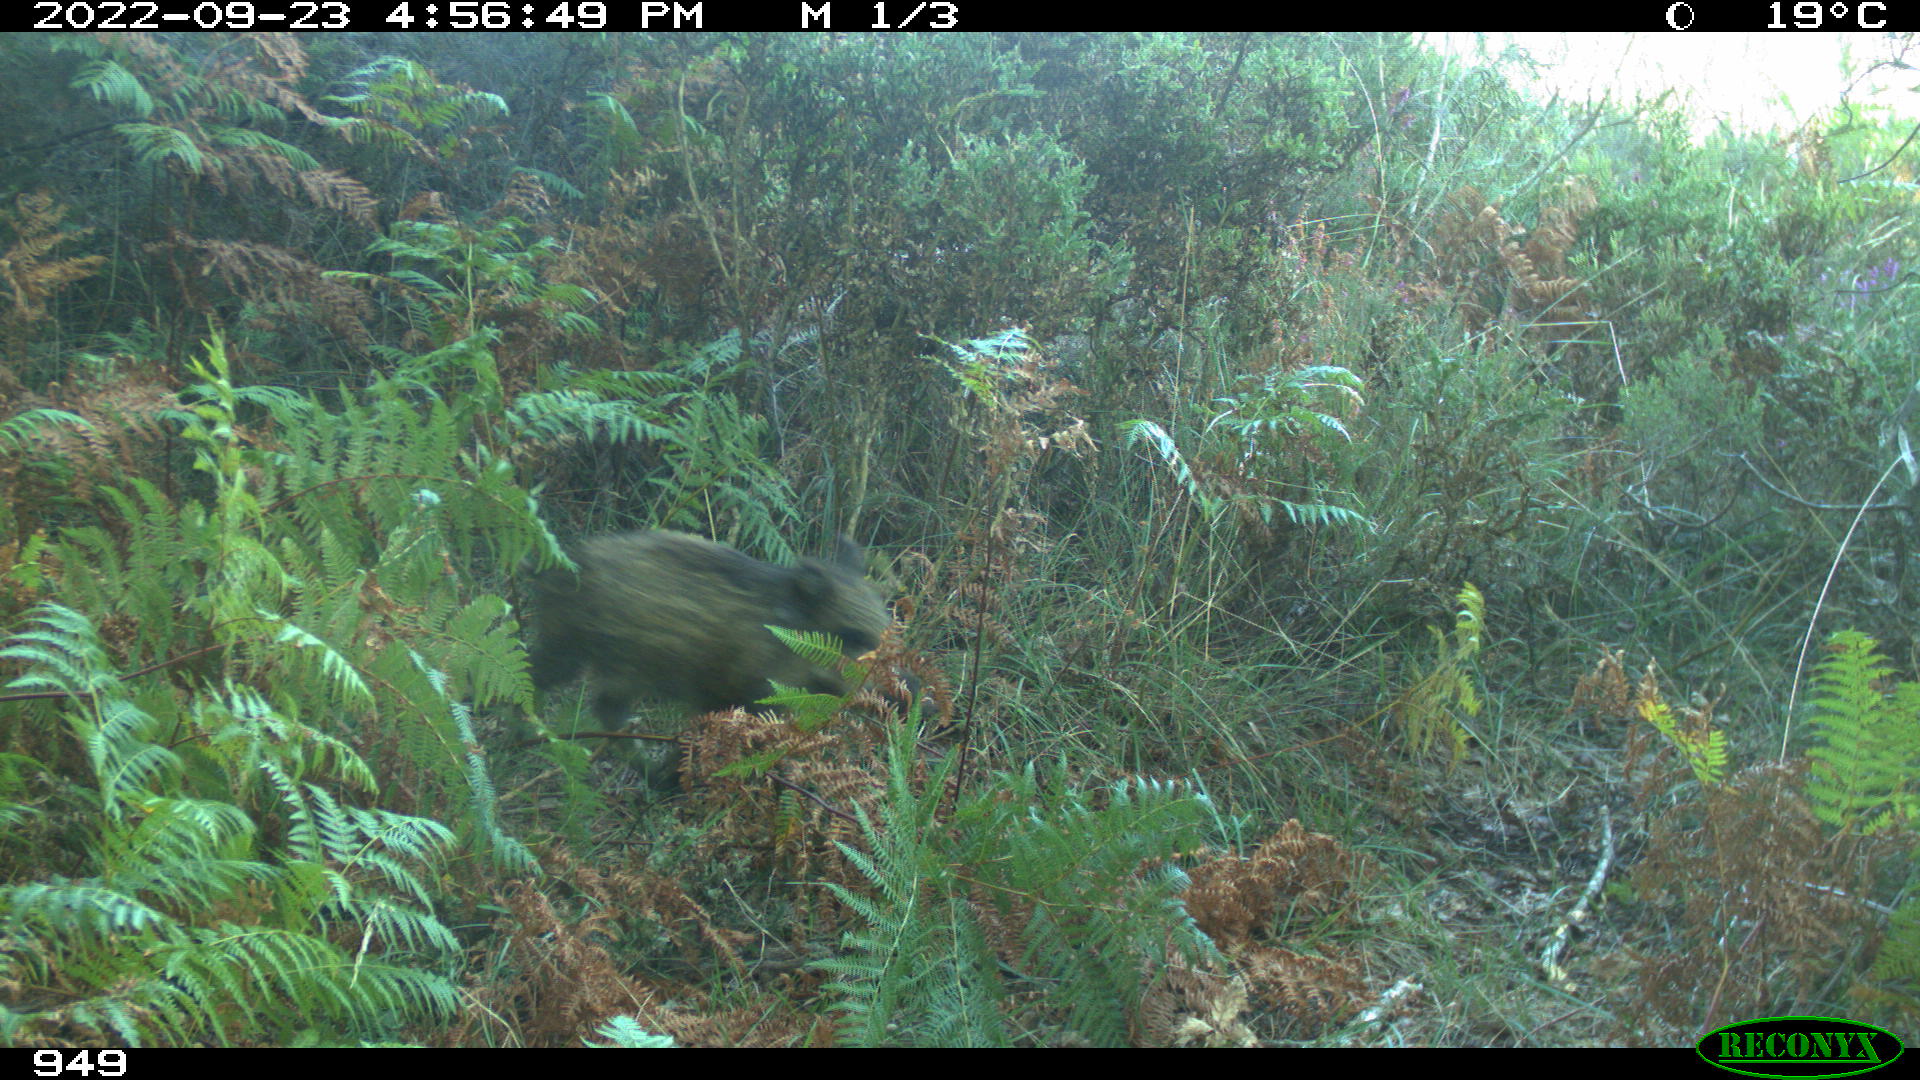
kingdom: Animalia
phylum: Chordata
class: Mammalia
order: Artiodactyla
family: Suidae
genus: Sus
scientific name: Sus scrofa
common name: Wild boar
